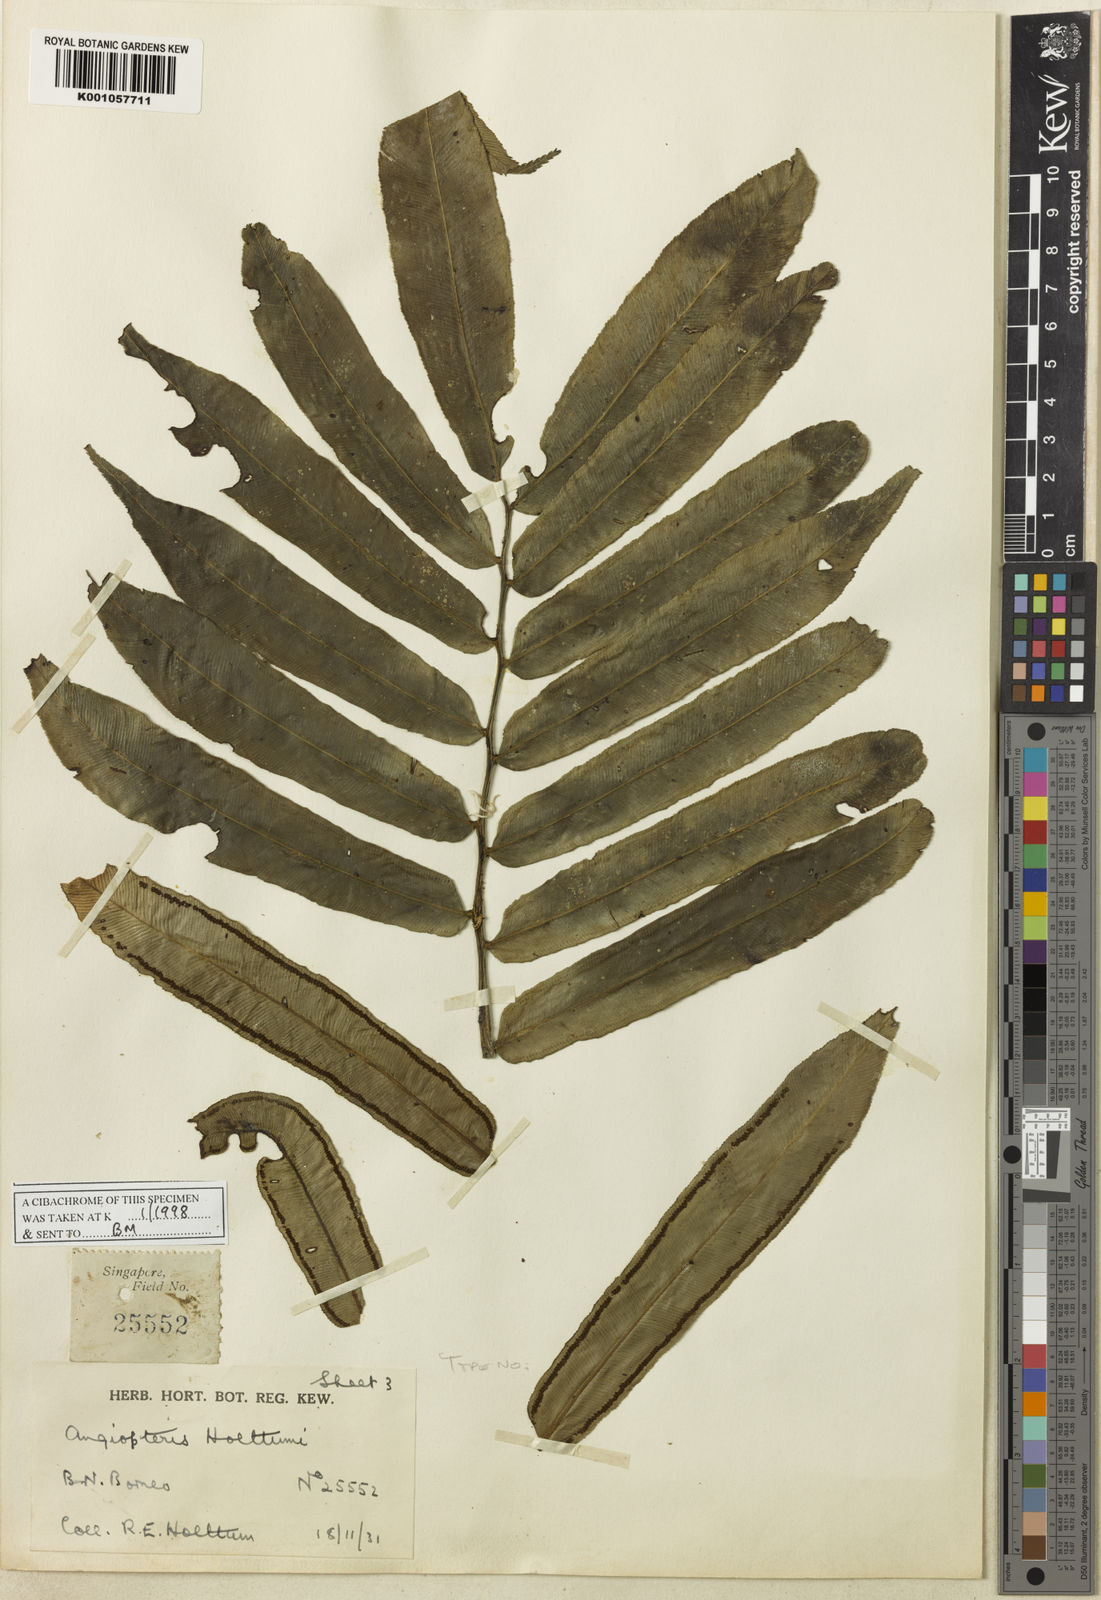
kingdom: Plantae
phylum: Tracheophyta
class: Polypodiopsida
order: Marattiales
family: Marattiaceae
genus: Angiopteris
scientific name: Angiopteris holttumii
